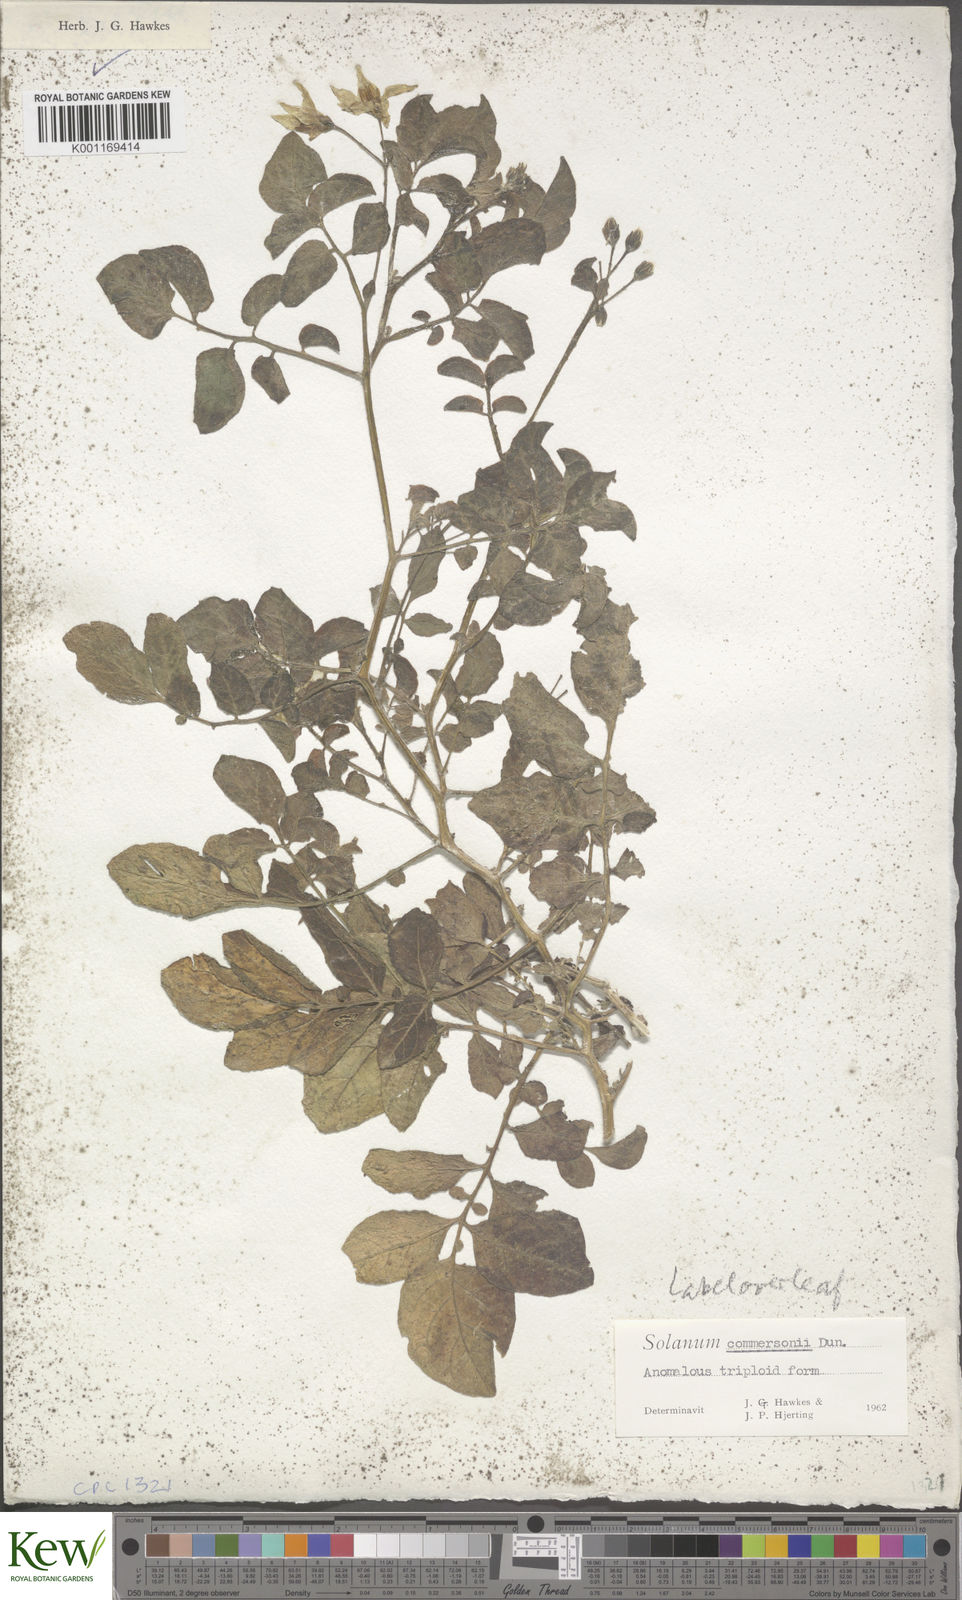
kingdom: Plantae
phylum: Tracheophyta
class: Magnoliopsida
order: Solanales
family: Solanaceae
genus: Solanum
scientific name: Solanum commersonii
